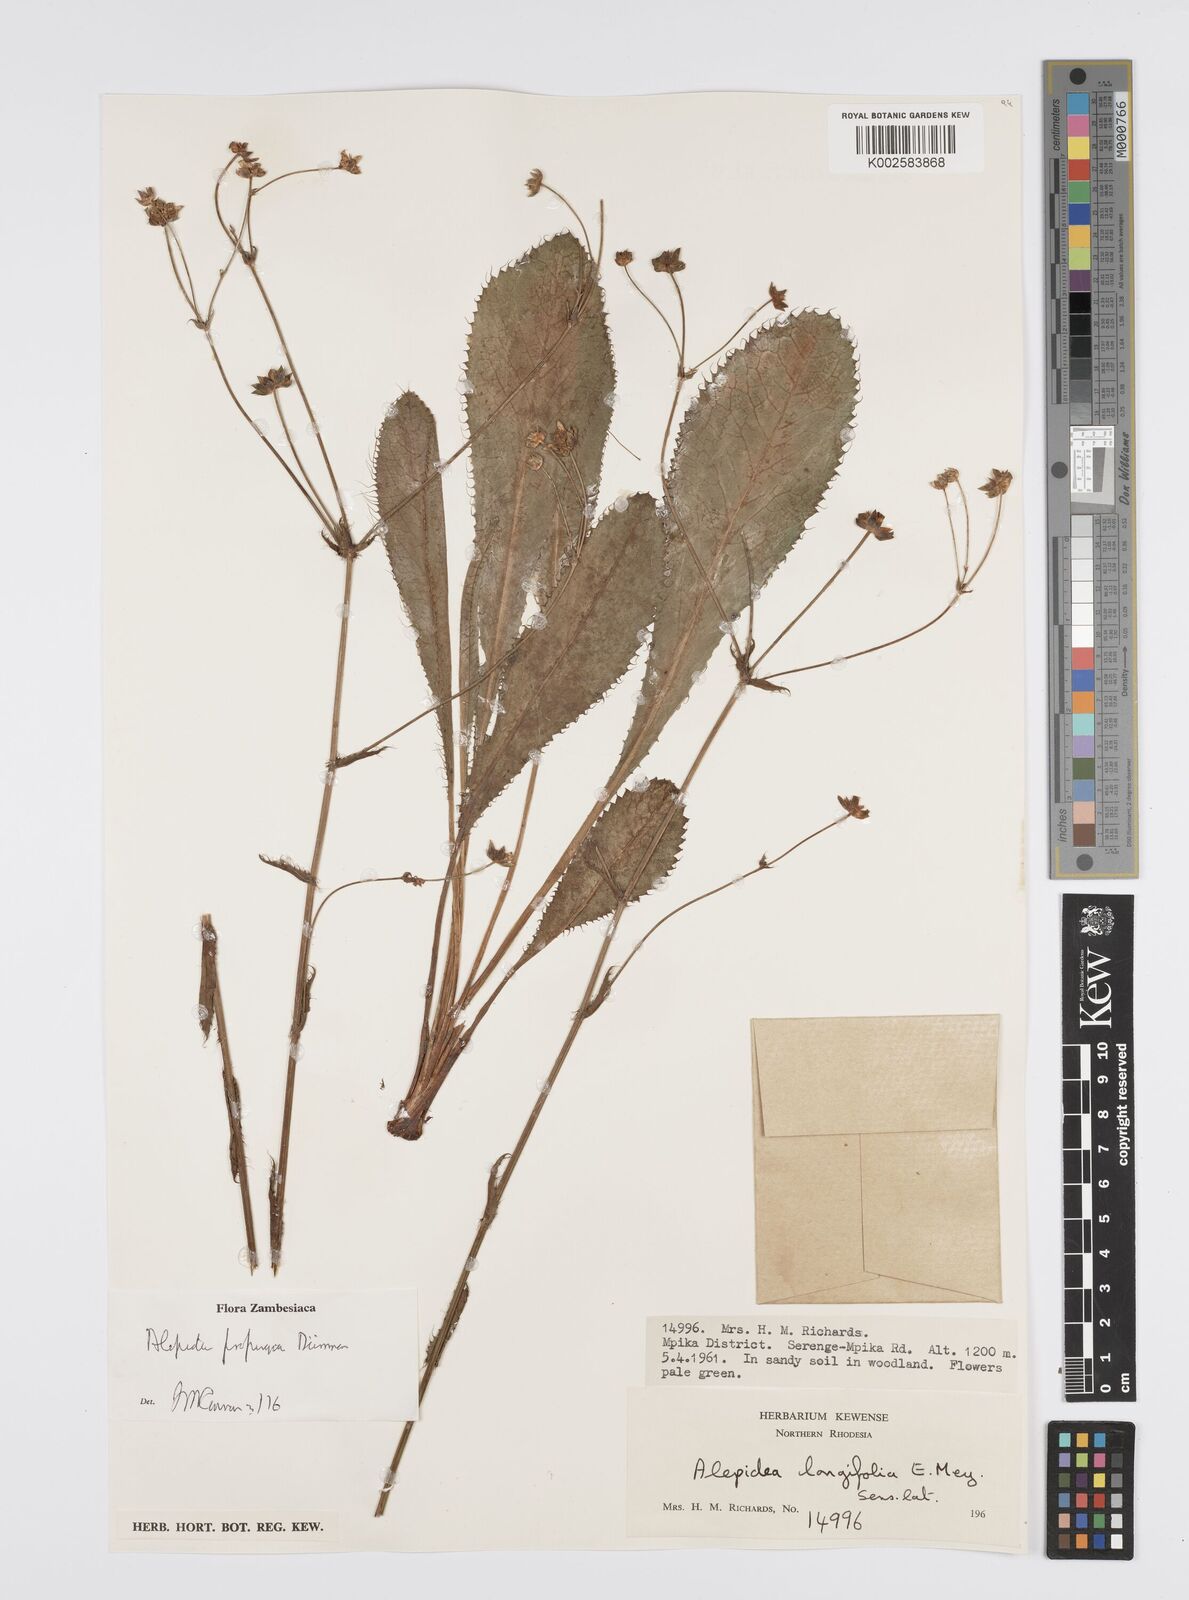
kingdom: Plantae
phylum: Tracheophyta
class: Magnoliopsida
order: Apiales
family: Apiaceae
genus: Alepidea
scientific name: Alepidea
